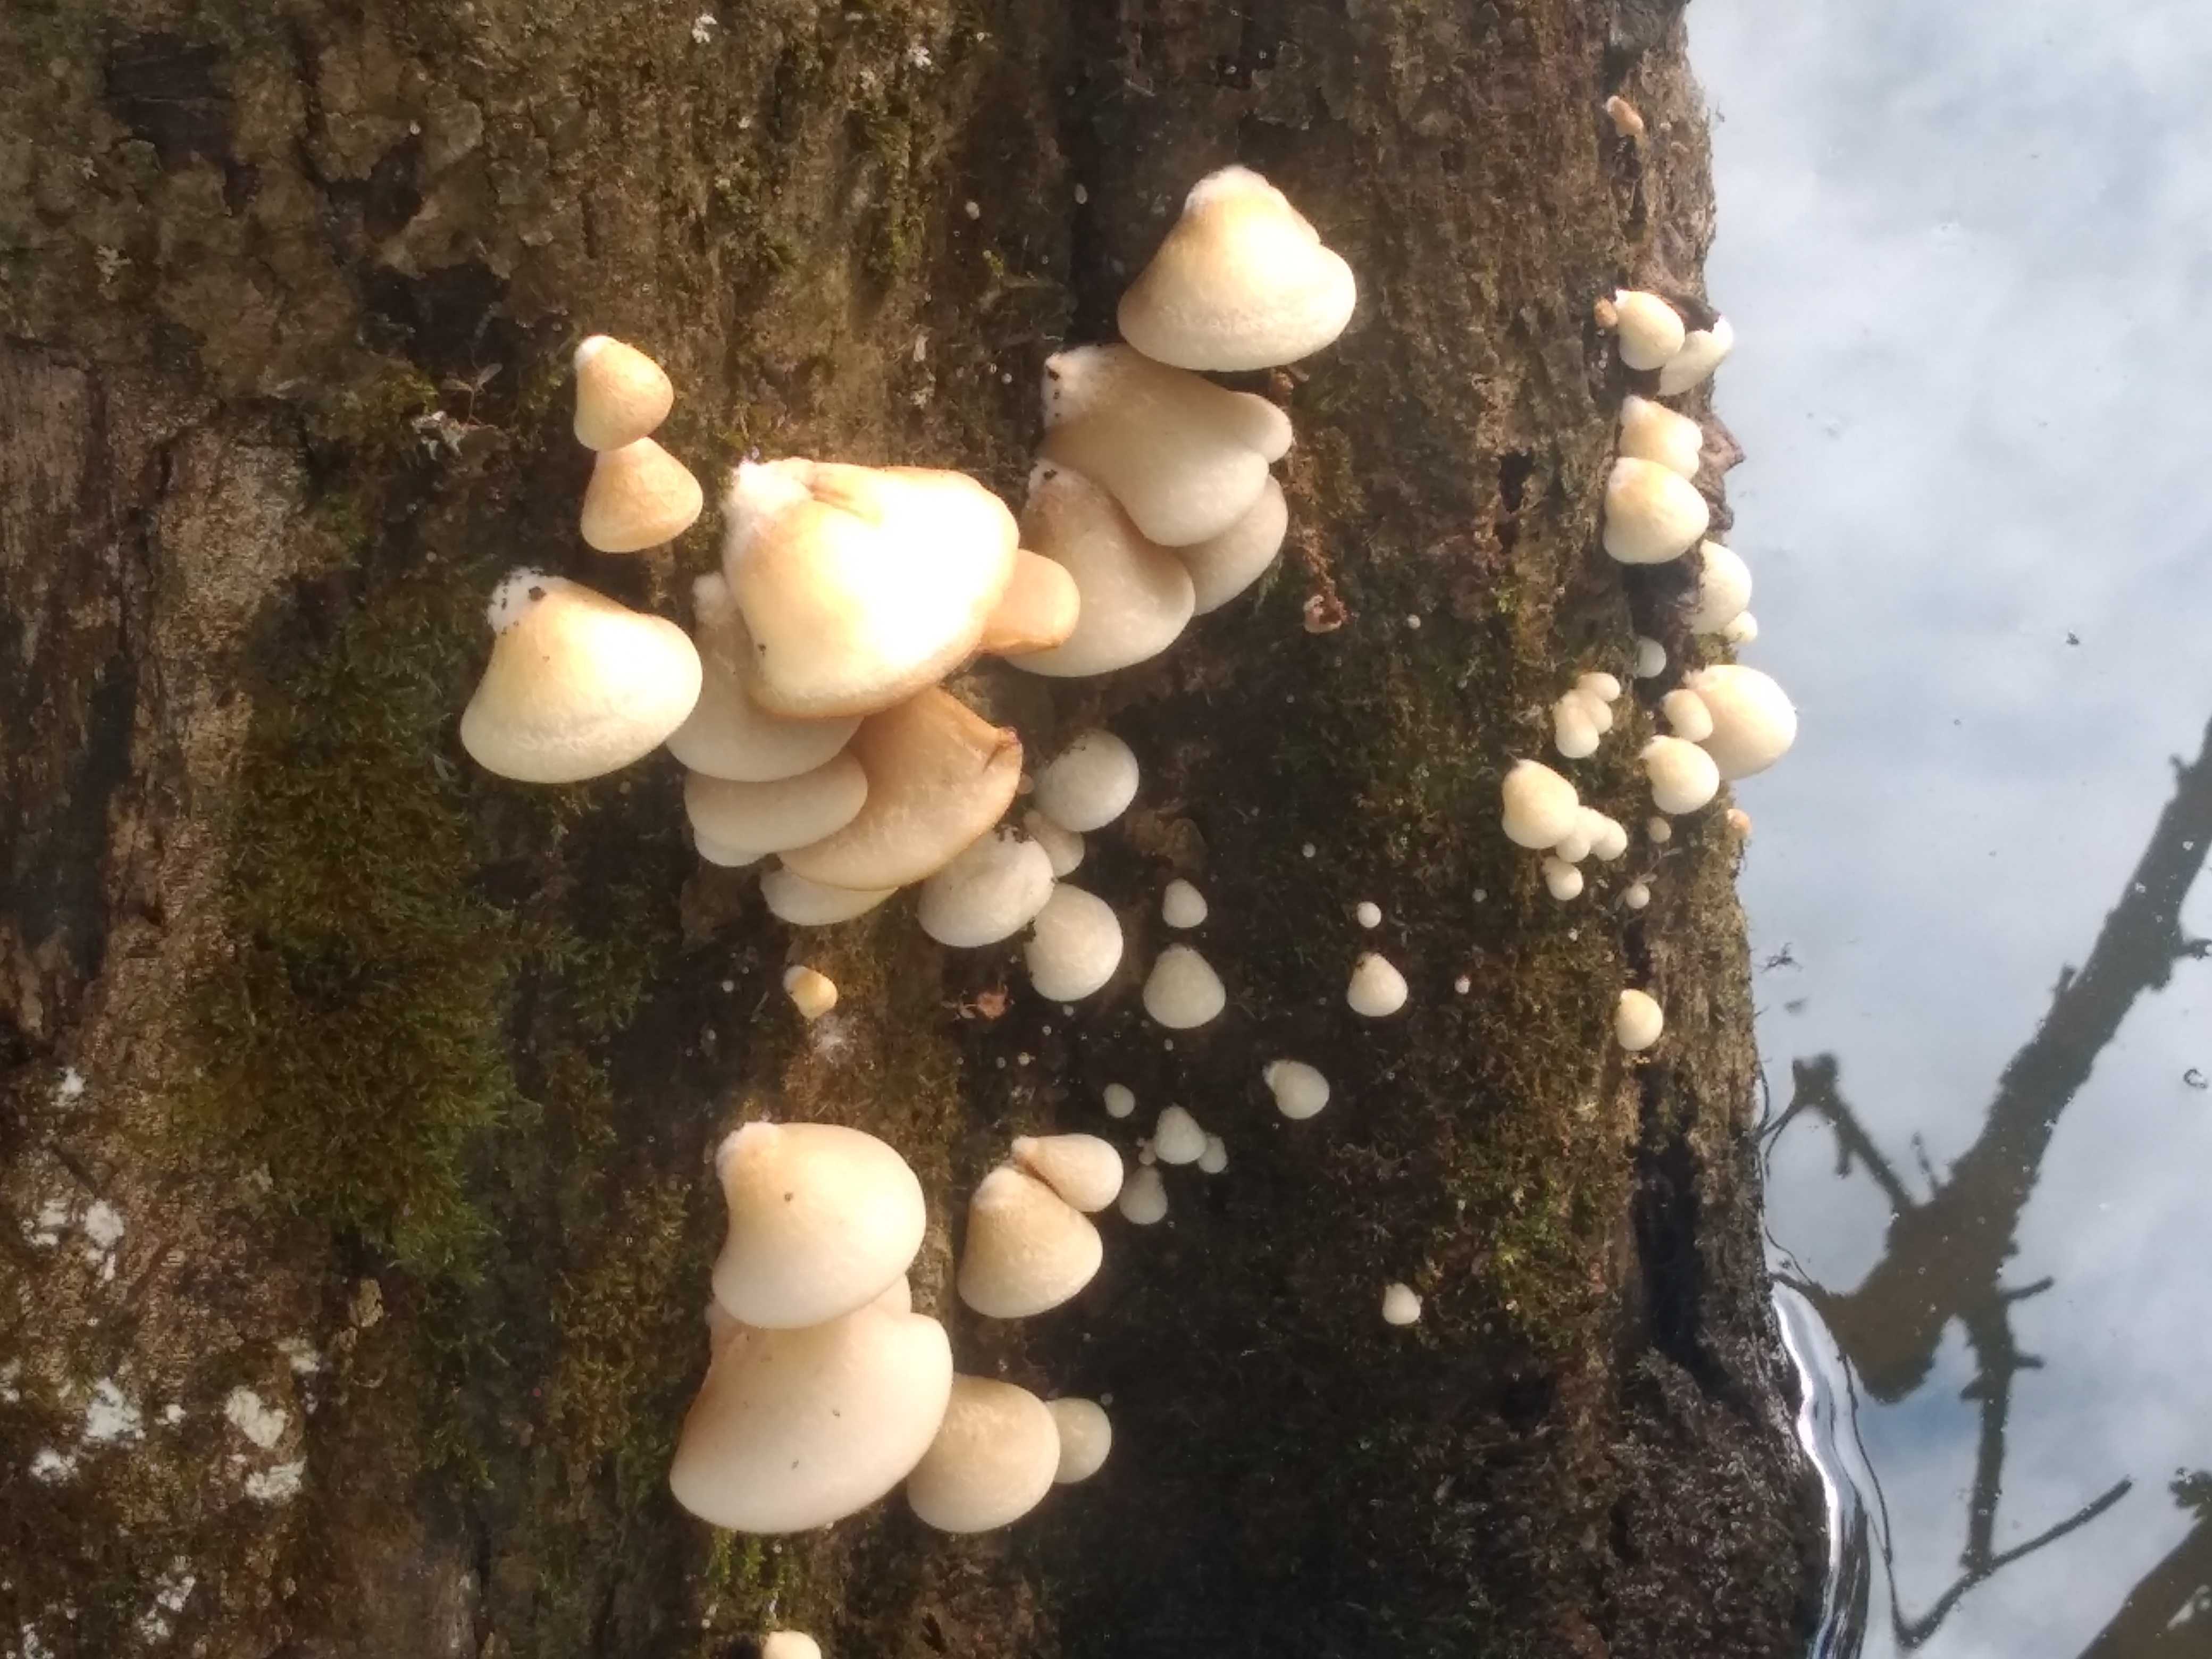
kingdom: Fungi
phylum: Basidiomycota
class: Agaricomycetes
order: Agaricales
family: Crepidotaceae
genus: Crepidotus
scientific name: Crepidotus mollis
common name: blød muslingesvamp
